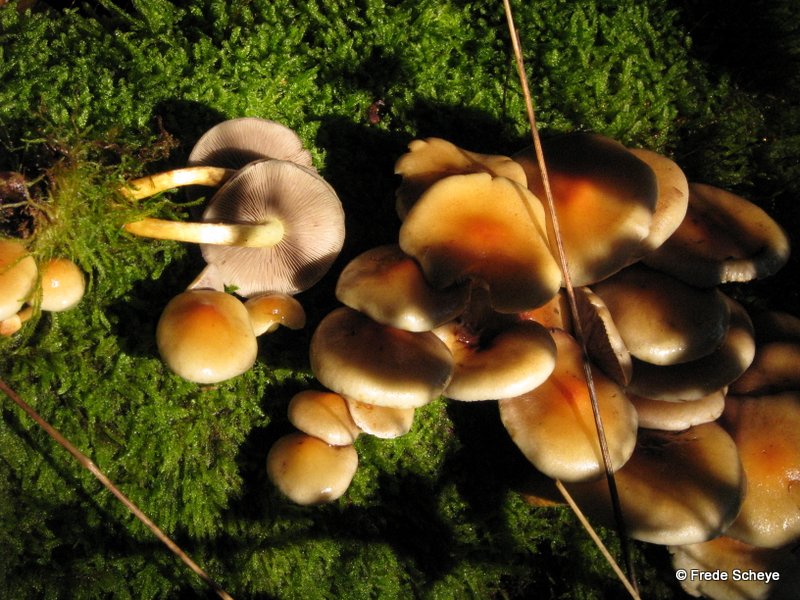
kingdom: Fungi
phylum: Basidiomycota
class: Agaricomycetes
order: Agaricales
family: Strophariaceae
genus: Hypholoma
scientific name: Hypholoma lateritium
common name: teglrød svovlhat
